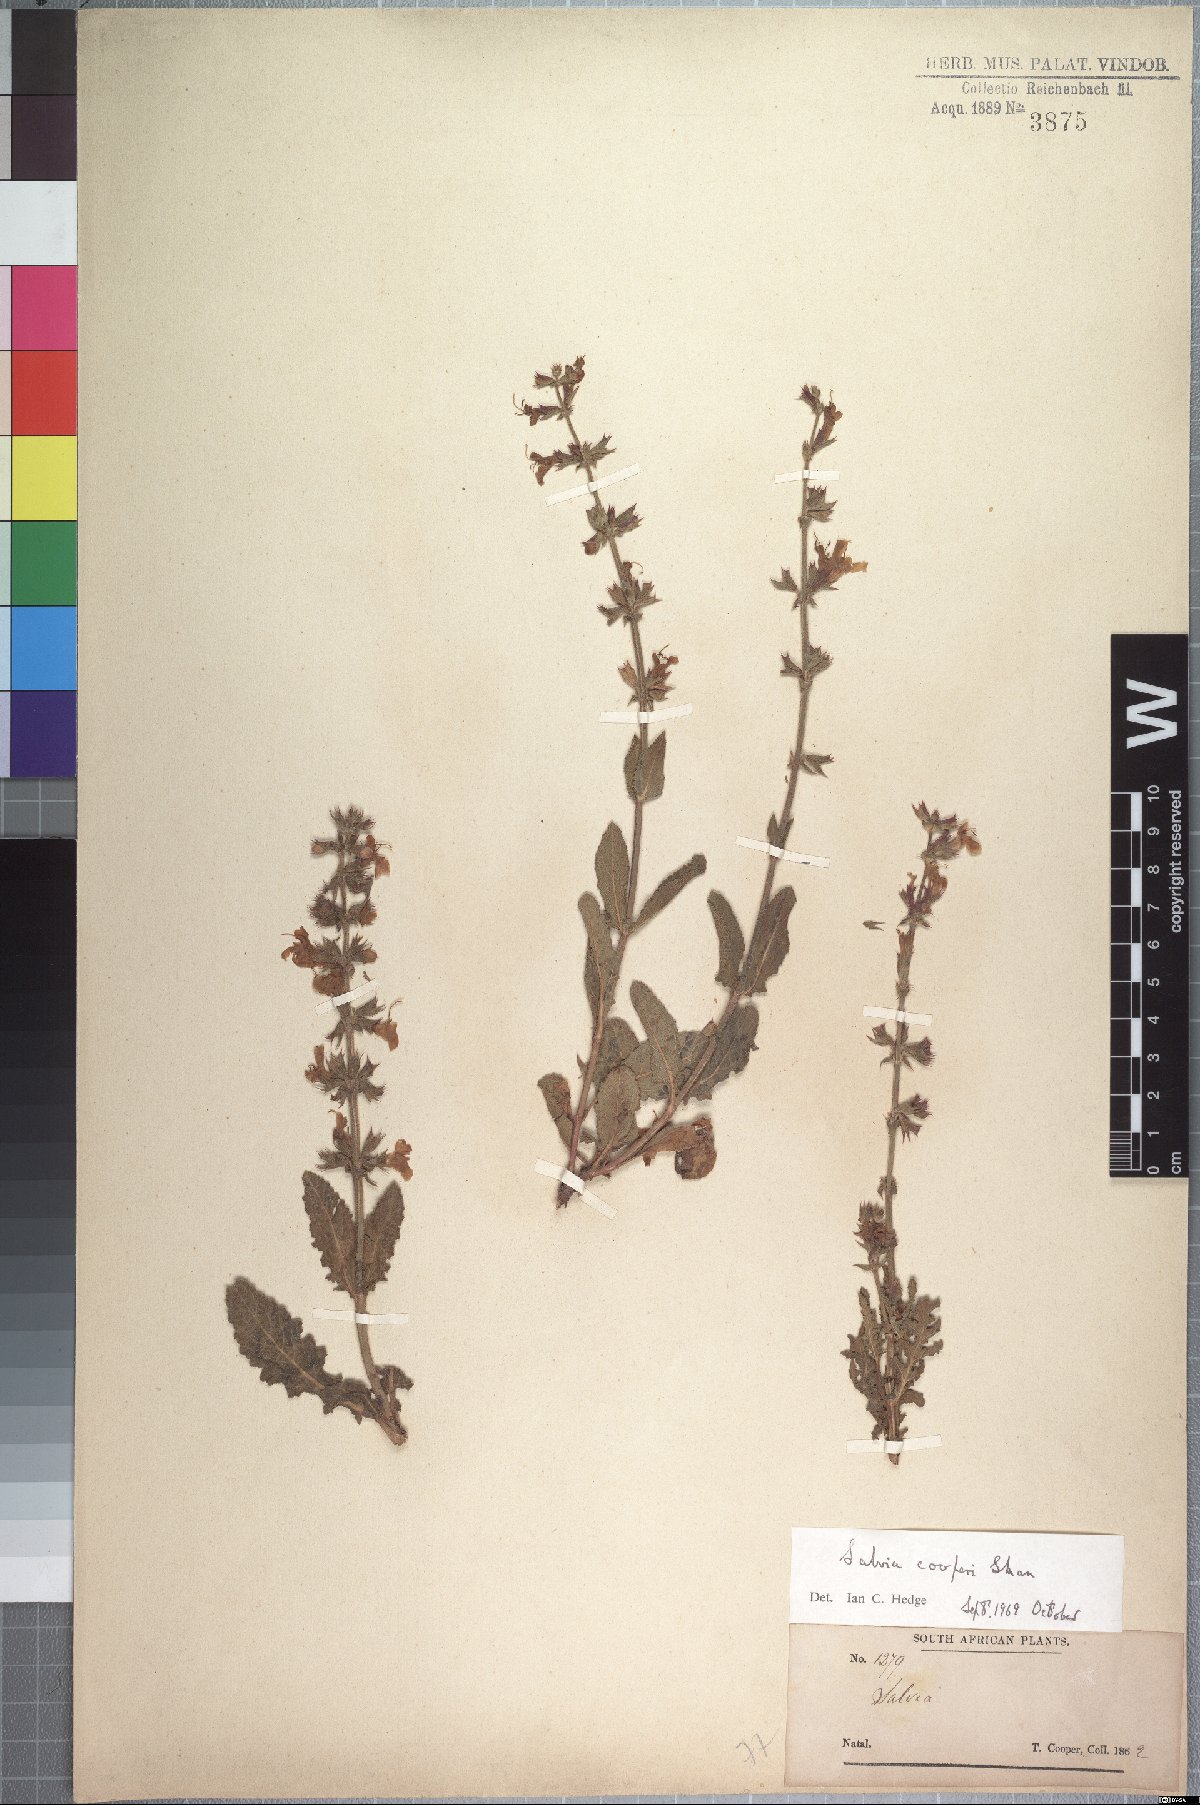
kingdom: Plantae
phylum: Tracheophyta
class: Magnoliopsida
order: Lamiales
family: Lamiaceae
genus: Salvia
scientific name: Salvia repens
